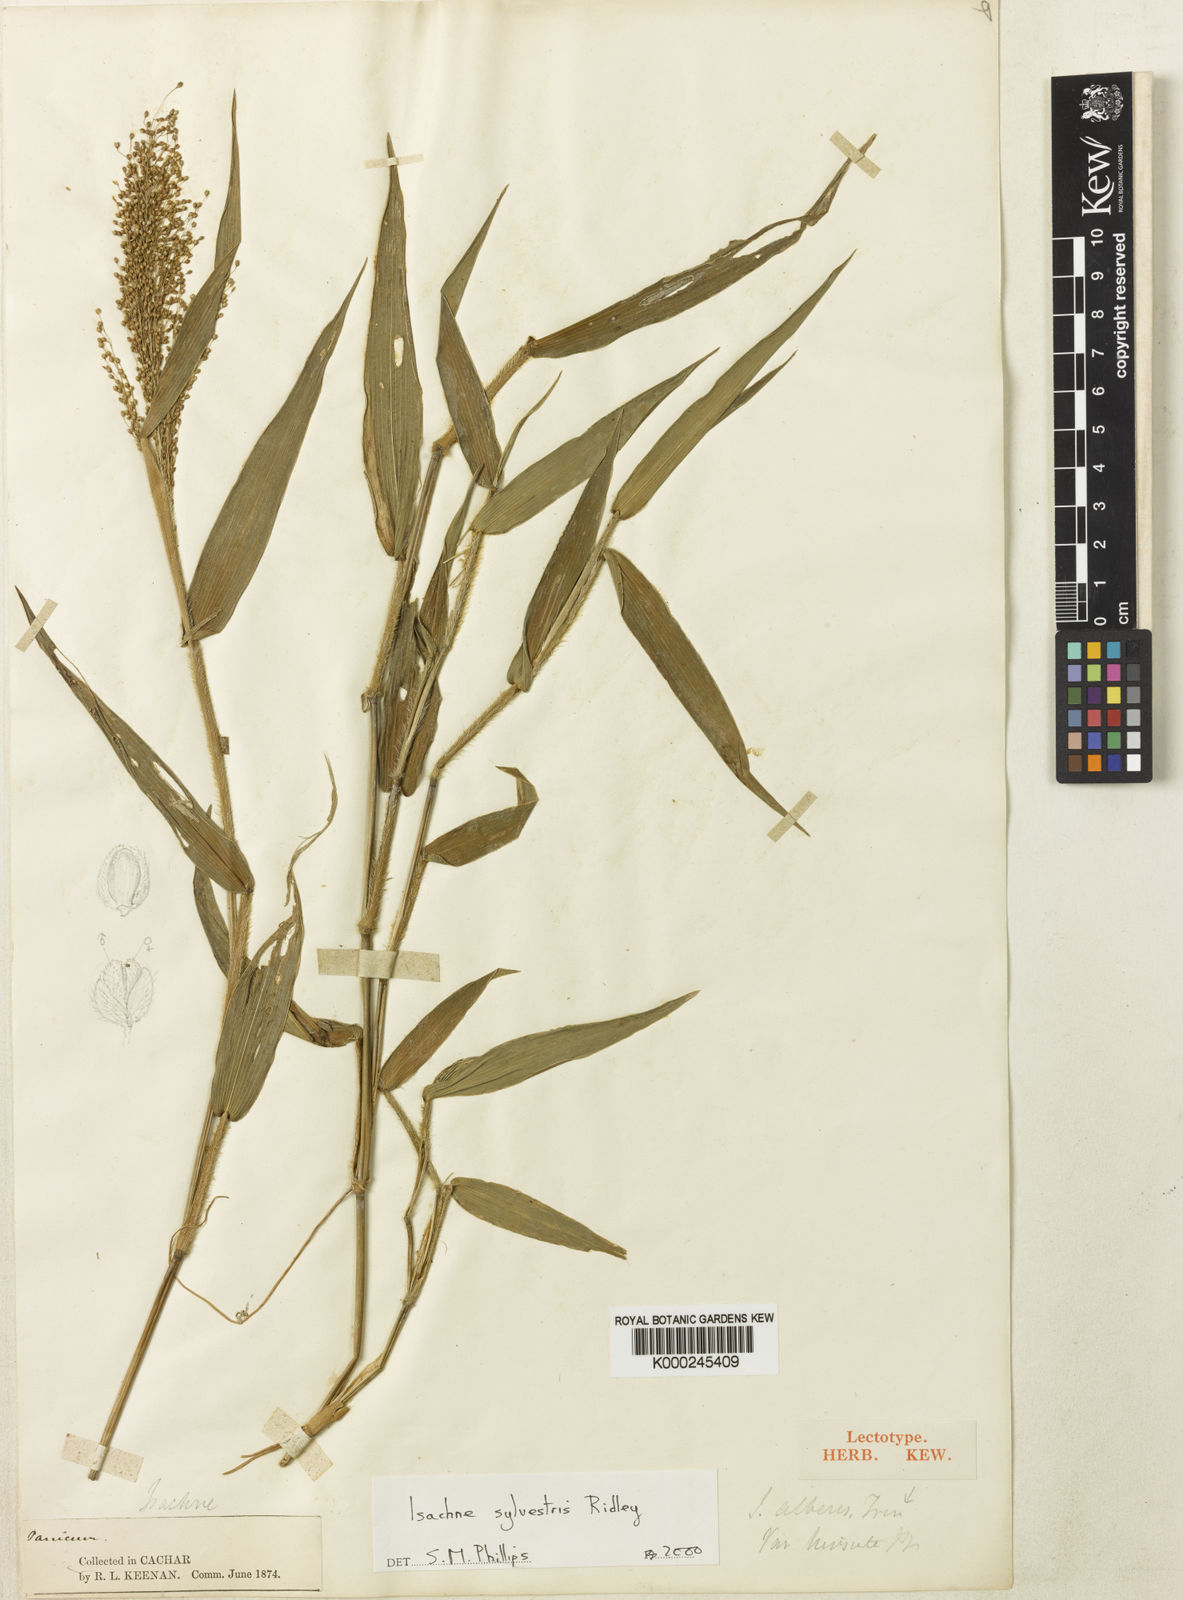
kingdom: Plantae
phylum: Tracheophyta
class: Liliopsida
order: Poales
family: Poaceae
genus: Isachne
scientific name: Isachne sylvestris
